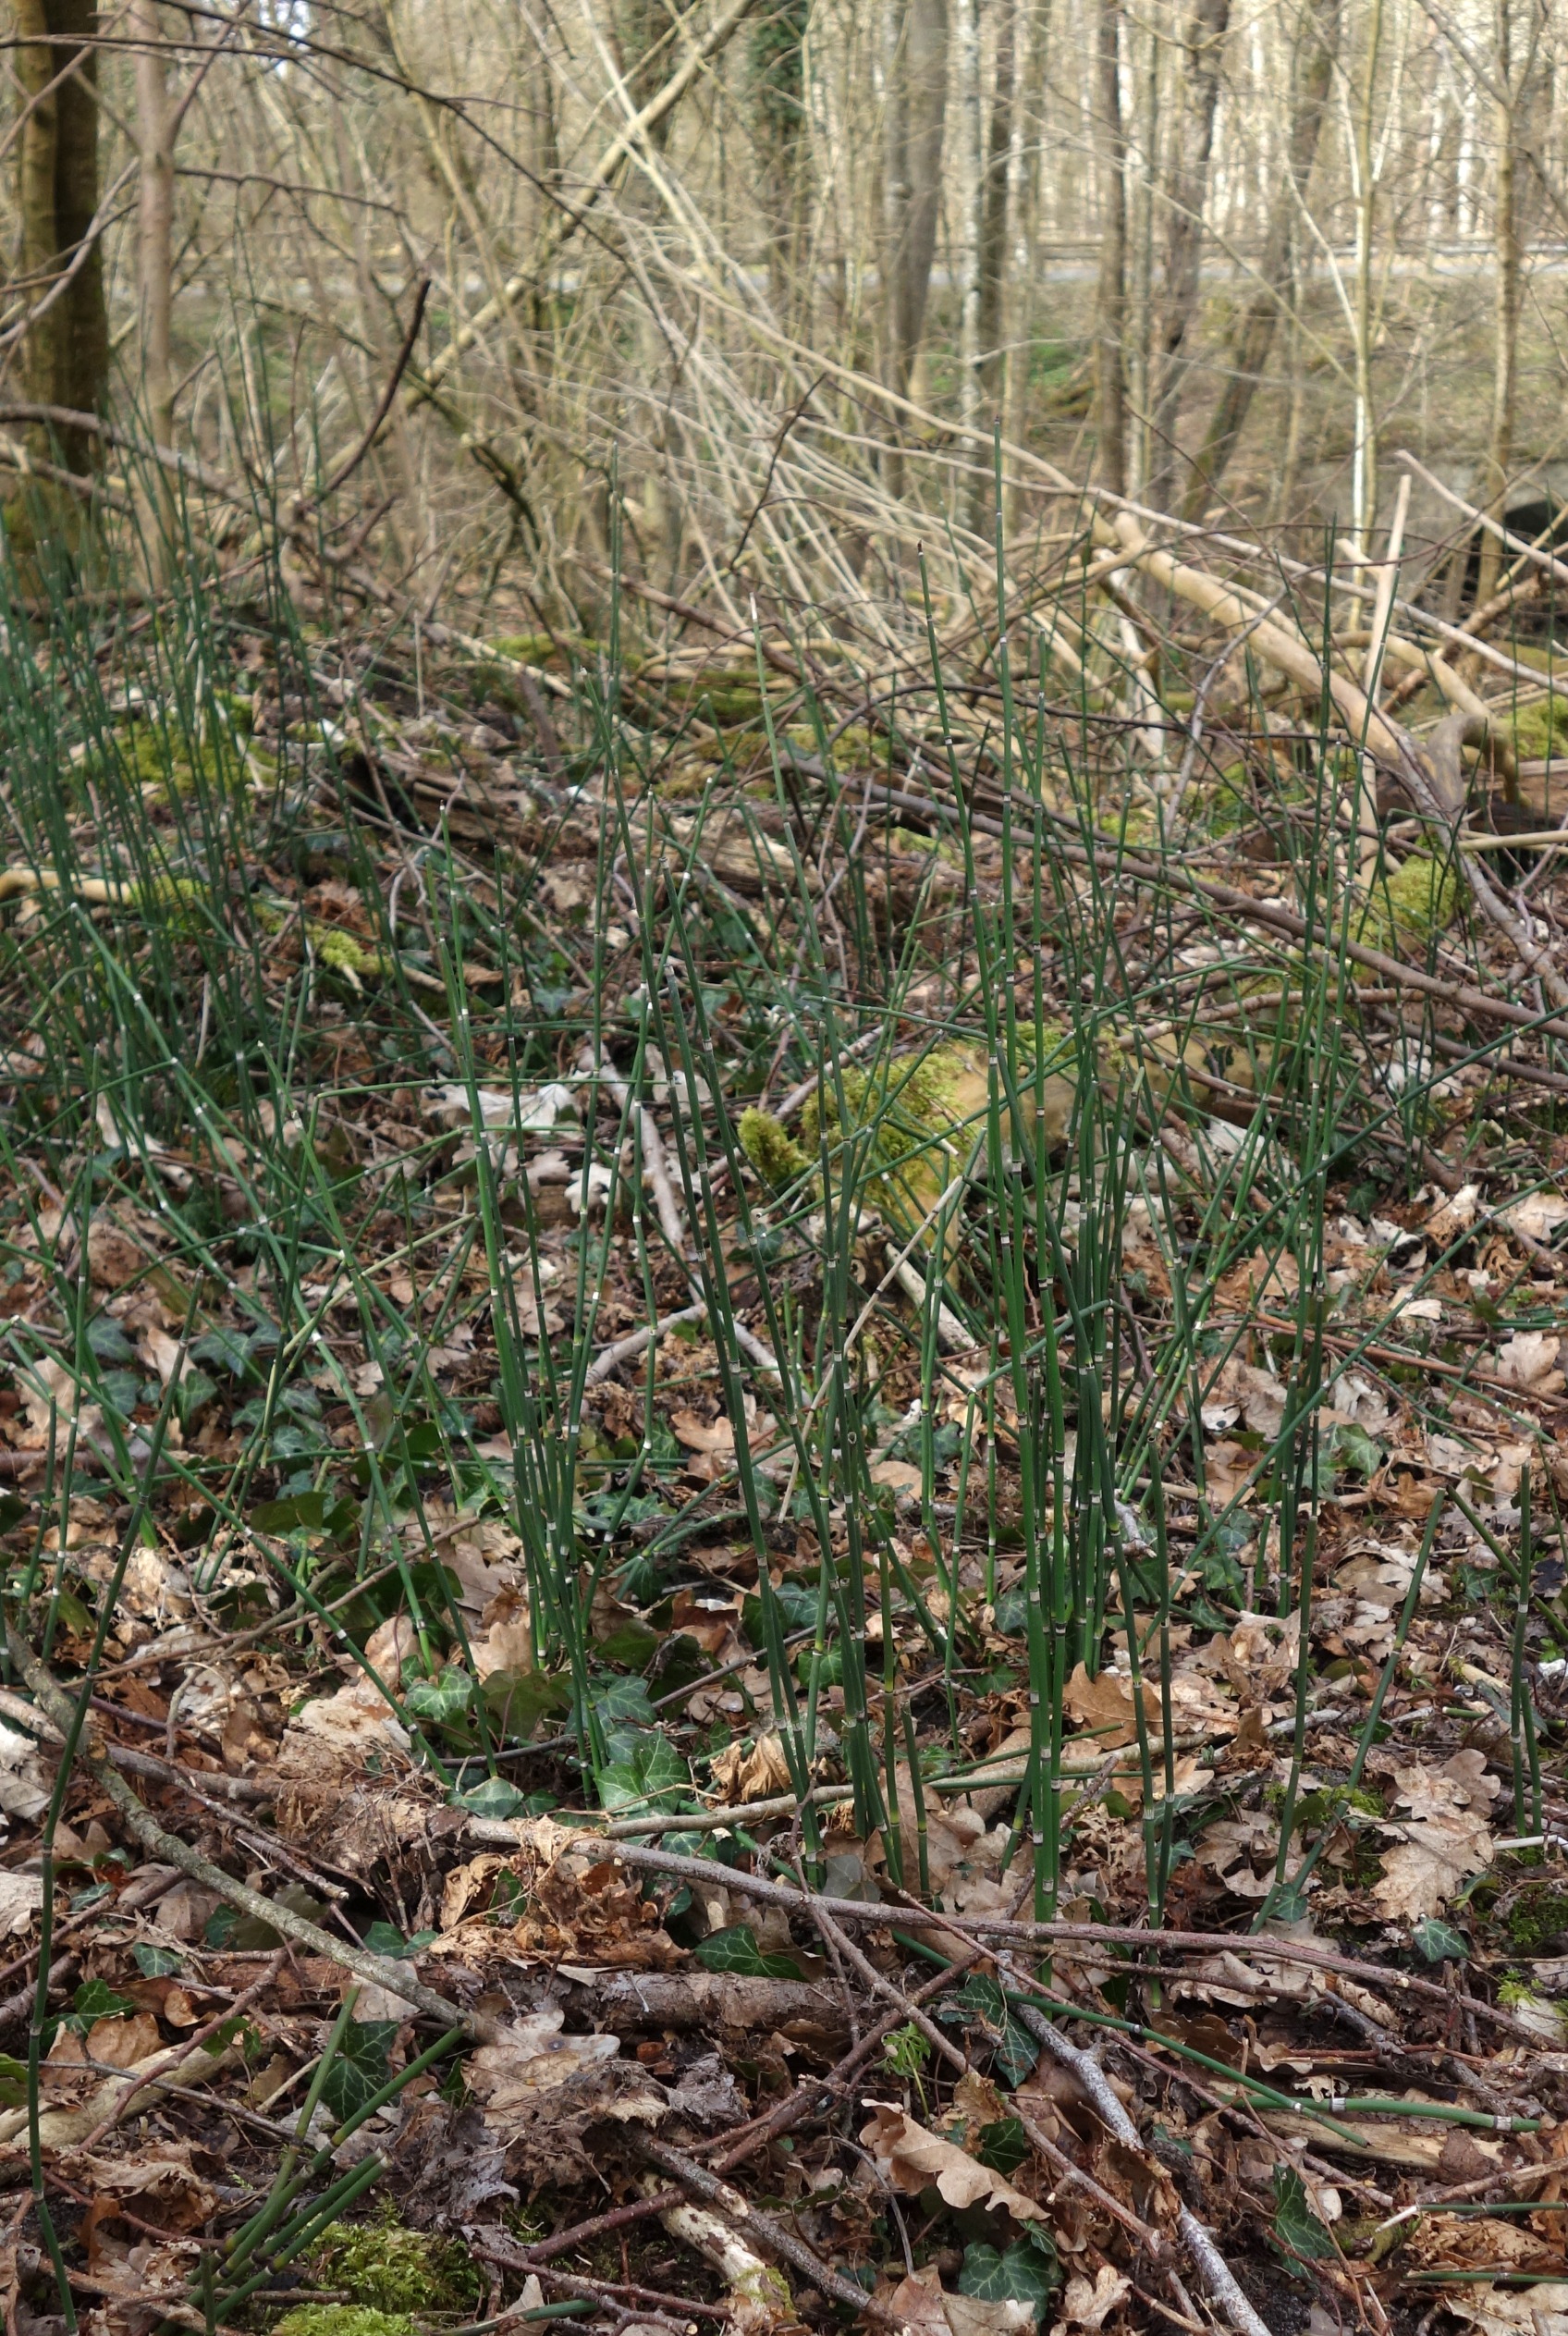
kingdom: Plantae
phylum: Tracheophyta
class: Polypodiopsida
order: Equisetales
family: Equisetaceae
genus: Equisetum
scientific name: Equisetum hyemale
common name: Skavgræs
